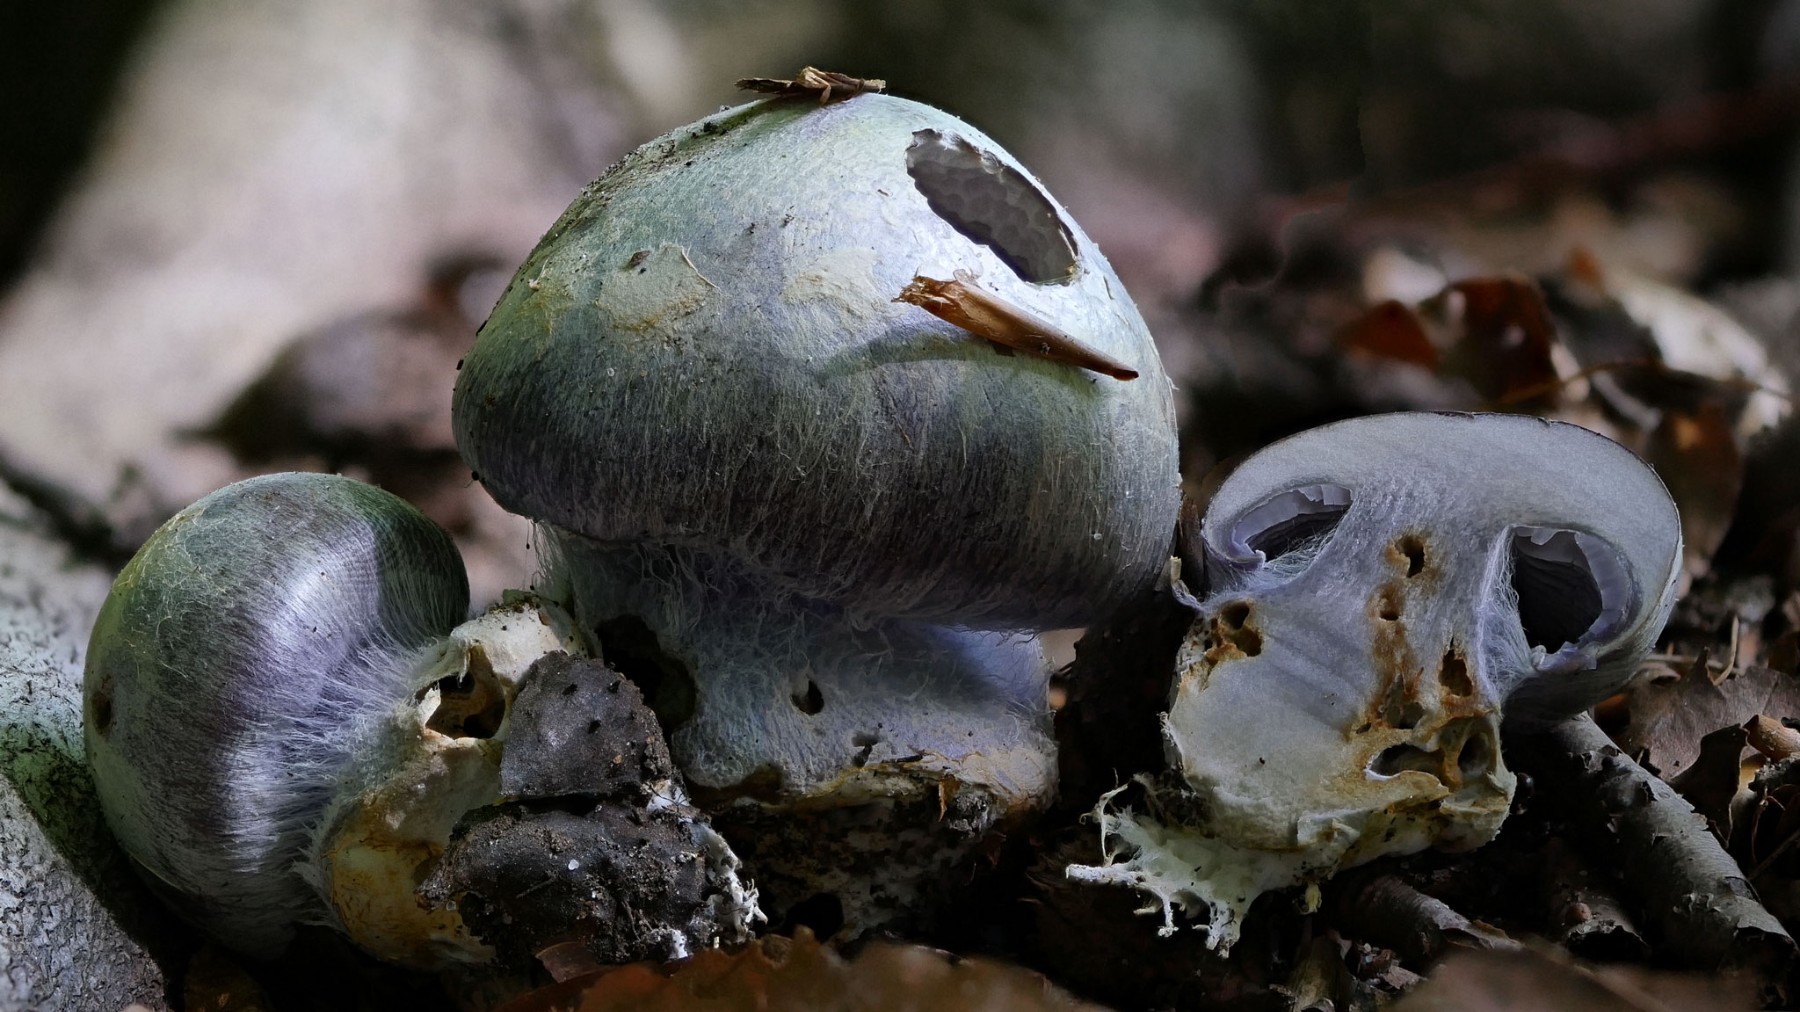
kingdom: Fungi
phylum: Basidiomycota
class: Agaricomycetes
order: Agaricales
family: Cortinariaceae
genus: Cortinarius
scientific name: Cortinarius caerulescens
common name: blåkødet slørhat
